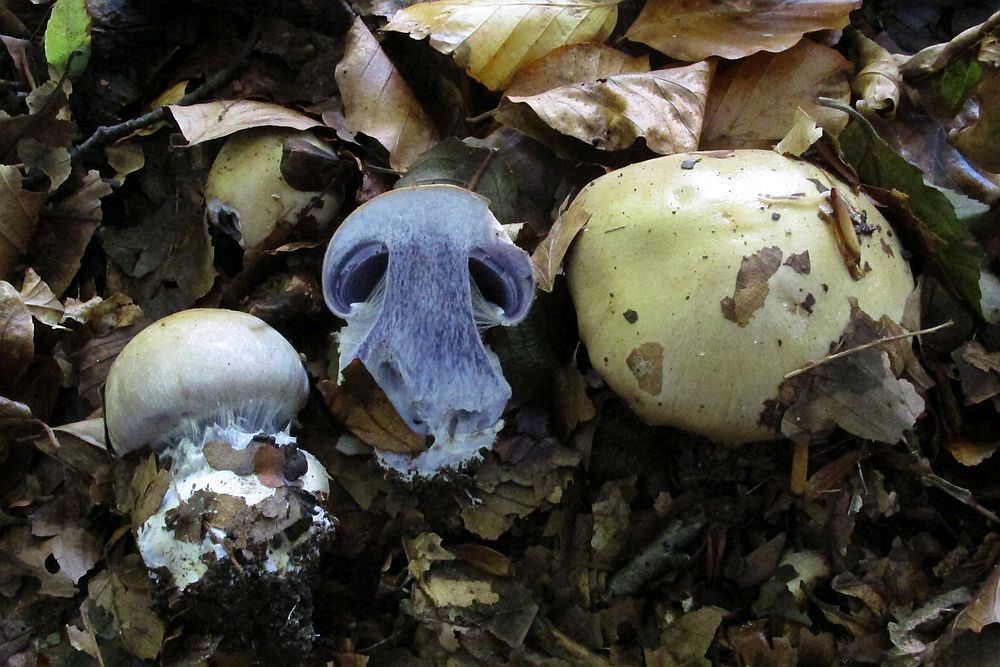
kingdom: Fungi
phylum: Basidiomycota
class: Agaricomycetes
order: Agaricales
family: Cortinariaceae
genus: Cortinarius
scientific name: Cortinarius anserinus
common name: bøge-slørhat
